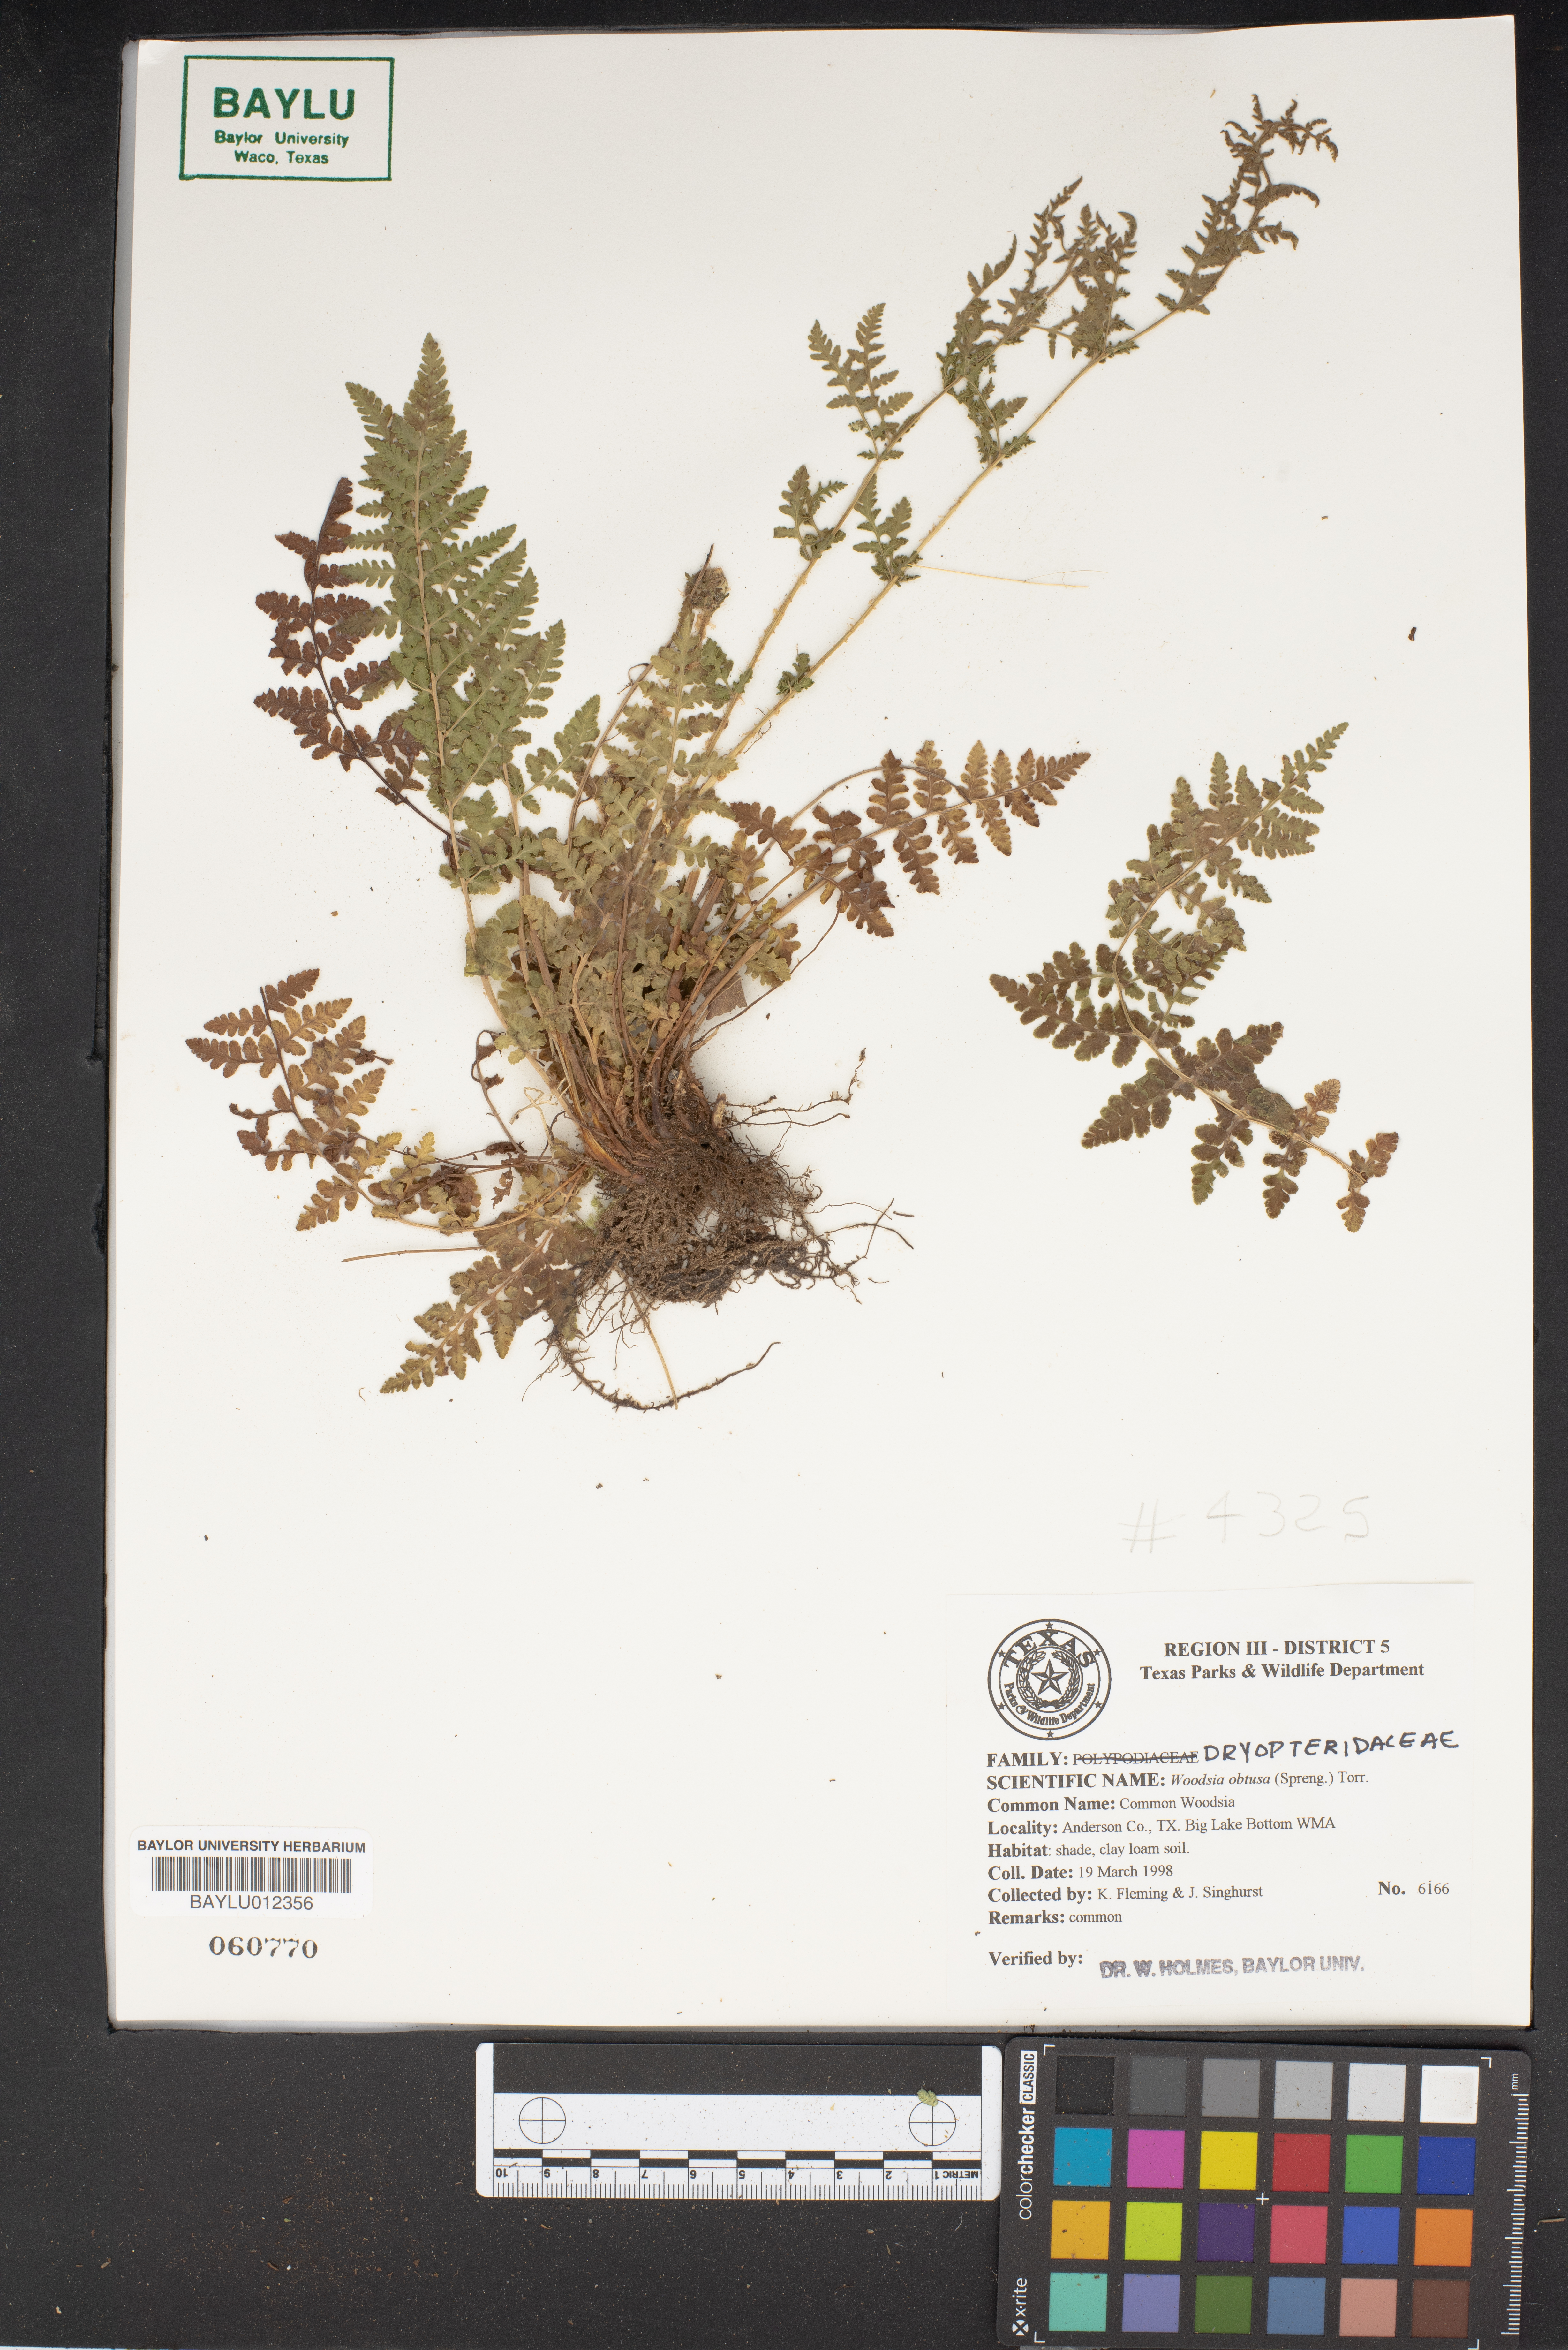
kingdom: Plantae
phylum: Tracheophyta
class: Polypodiopsida
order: Polypodiales
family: Woodsiaceae
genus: Physematium
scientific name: Physematium obtusum
